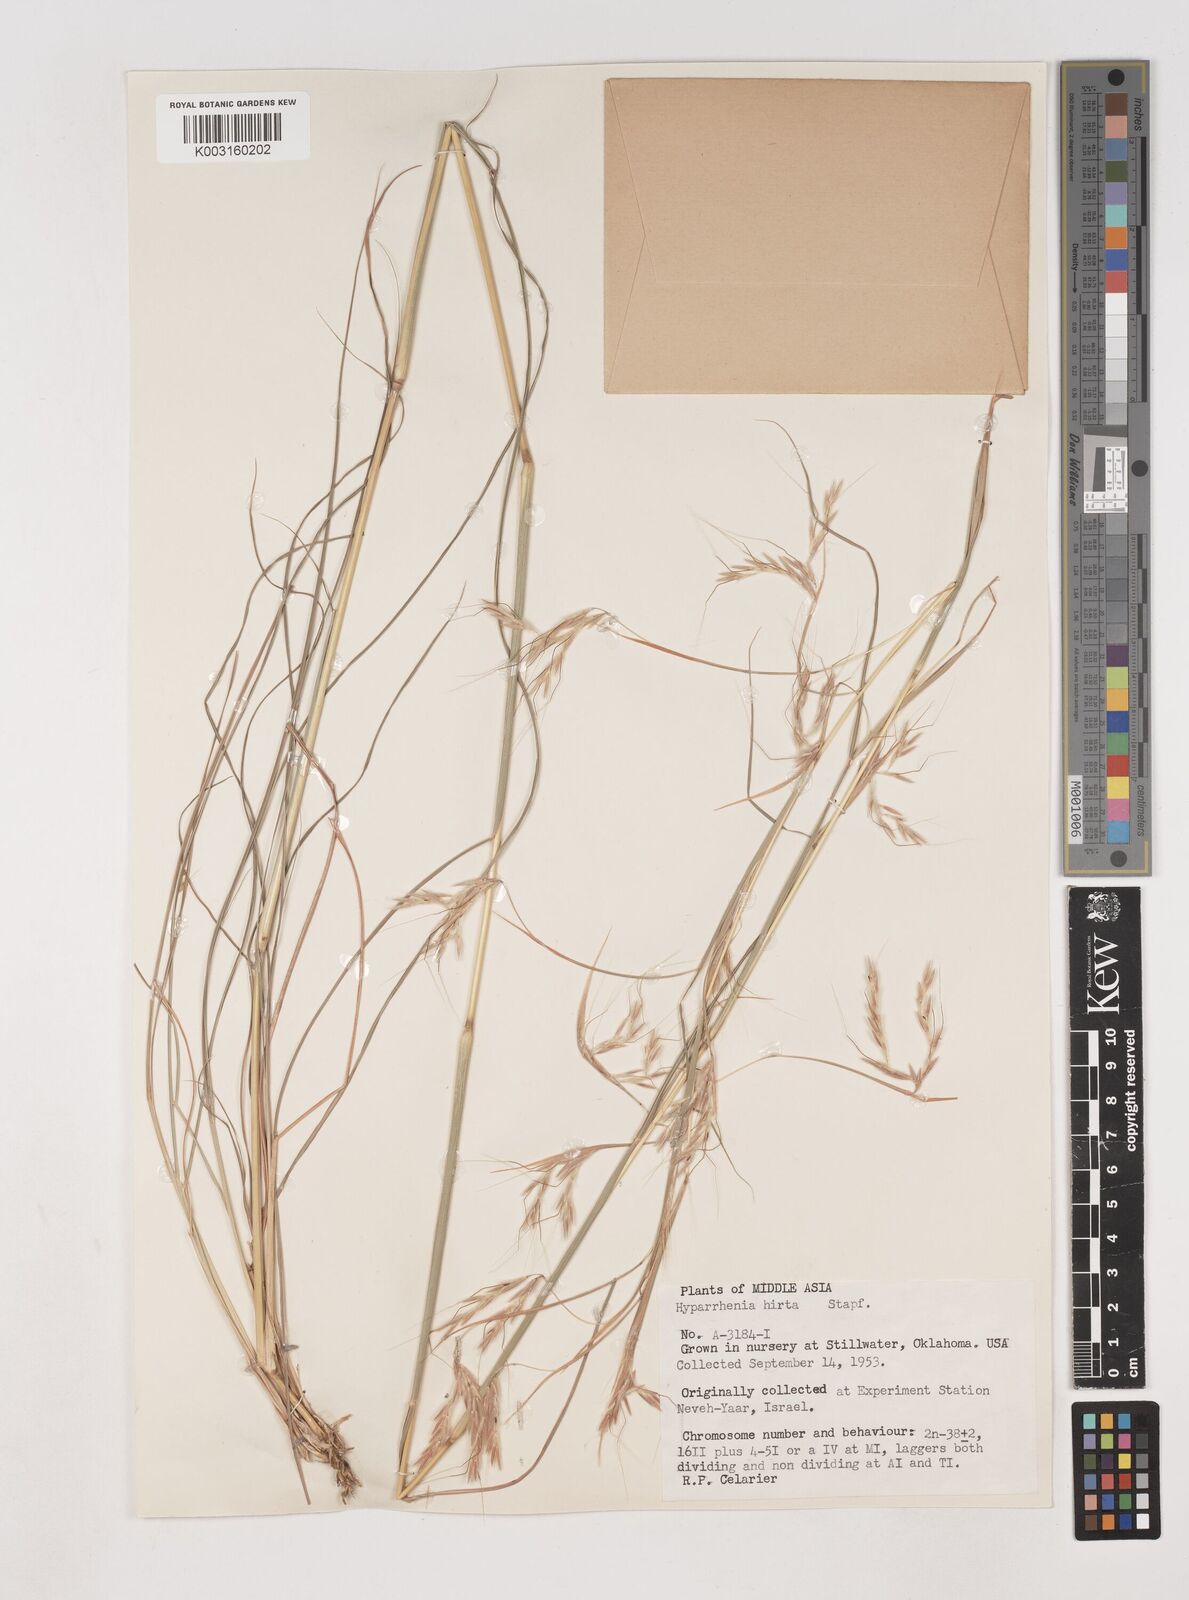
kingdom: Plantae
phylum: Tracheophyta
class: Liliopsida
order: Poales
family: Poaceae
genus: Hyparrhenia
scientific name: Hyparrhenia hirta
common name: Thatching grass
